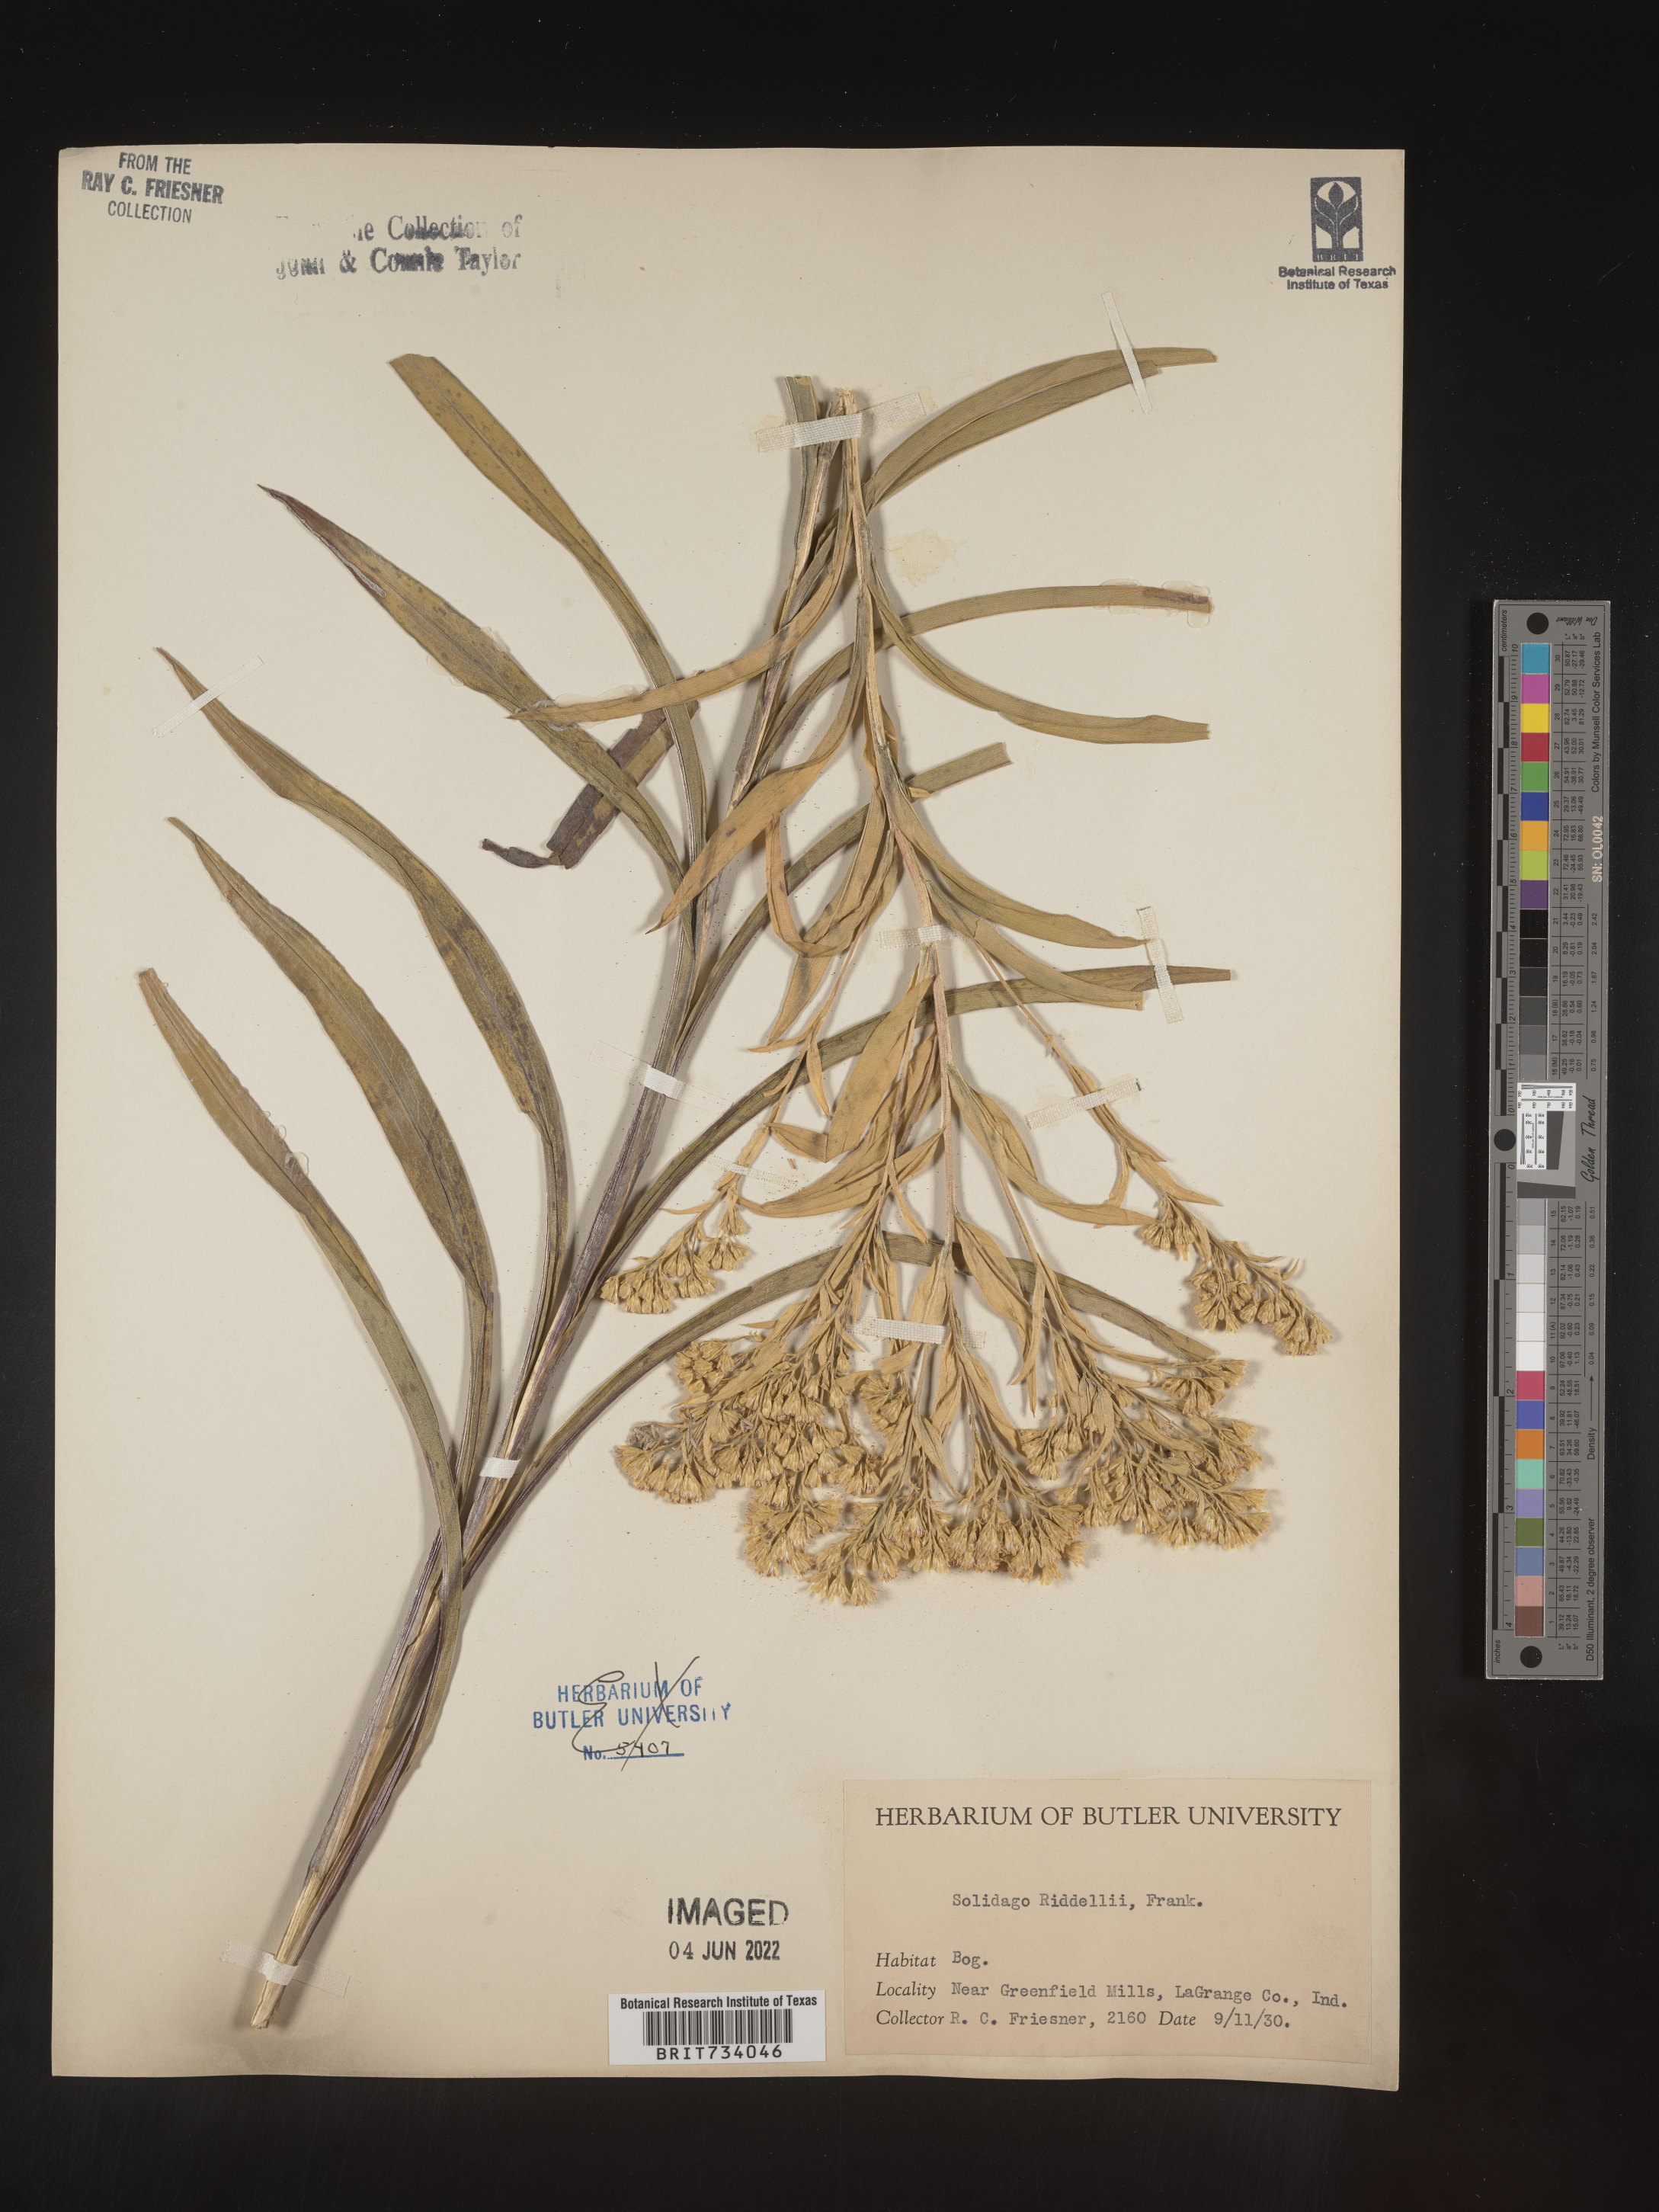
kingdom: Plantae
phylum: Tracheophyta
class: Magnoliopsida
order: Asterales
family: Asteraceae
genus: Solidago
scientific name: Solidago riddellii
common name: Riddell's goldenrod
